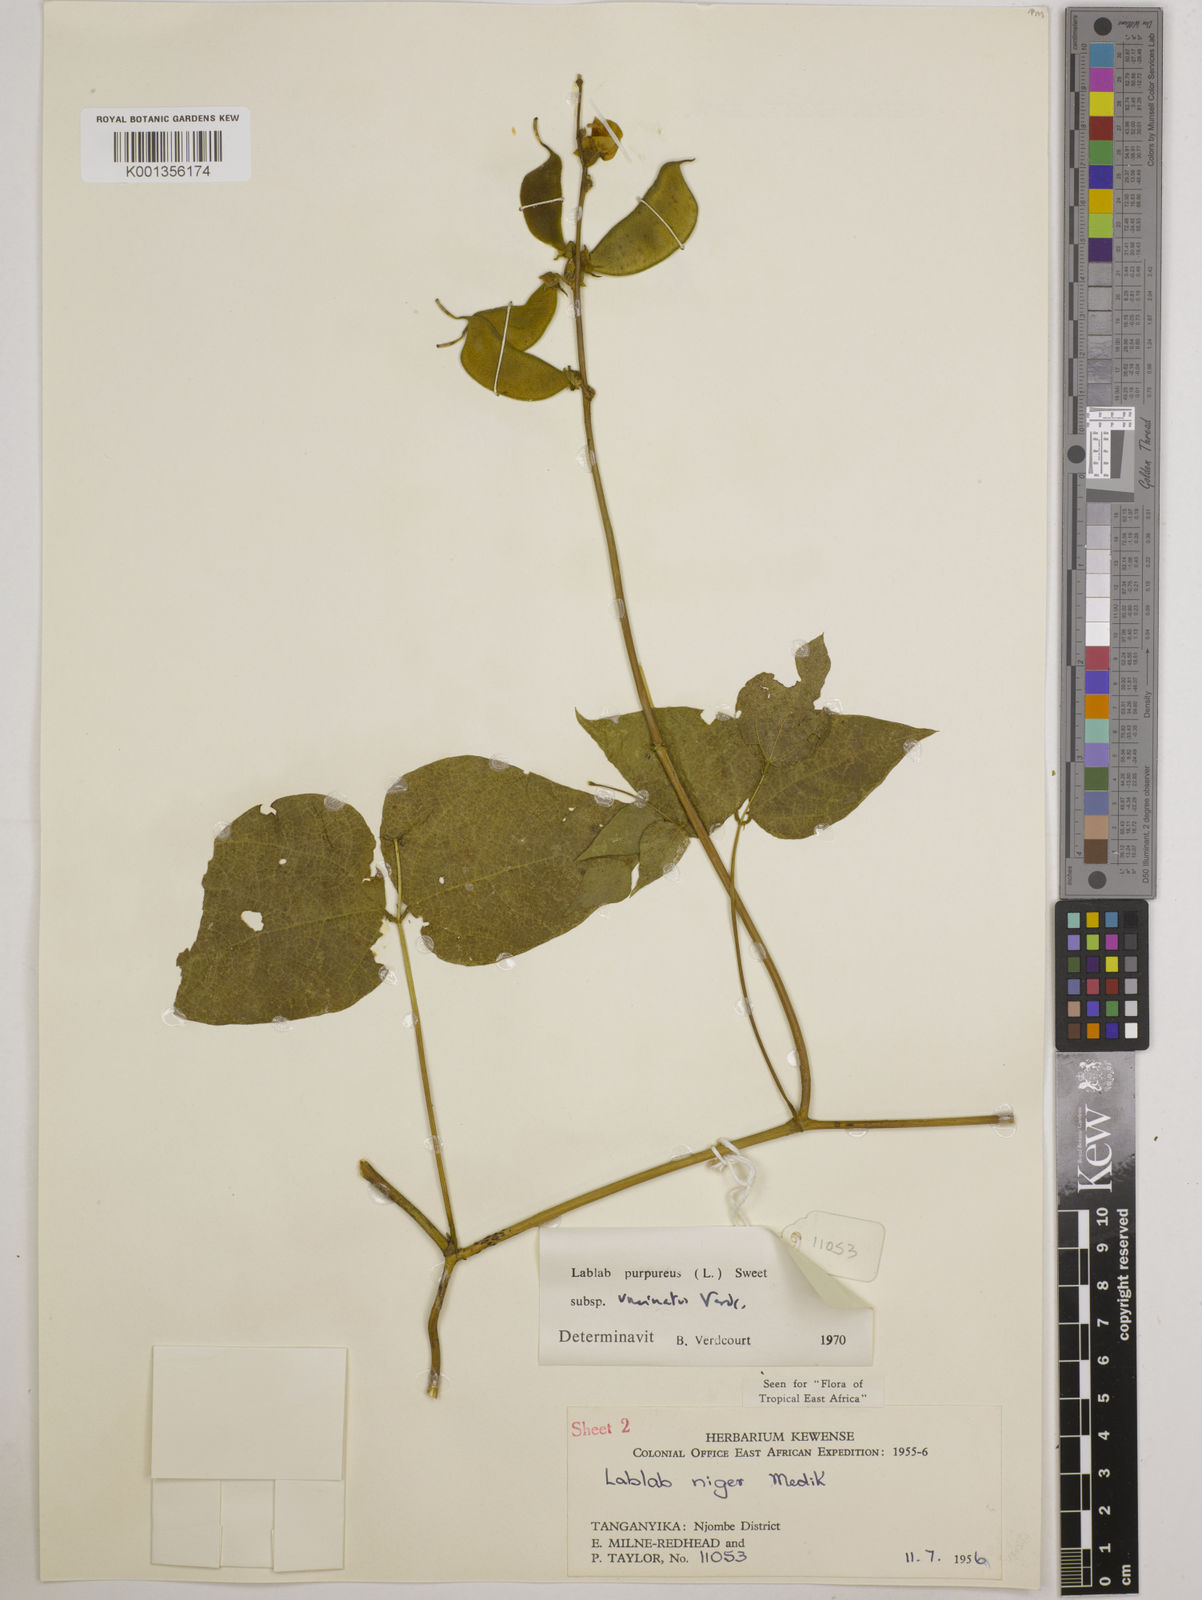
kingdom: Plantae
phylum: Tracheophyta
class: Magnoliopsida
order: Fabales
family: Fabaceae
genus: Lablab
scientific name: Lablab purpureus
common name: Lablab-bean
